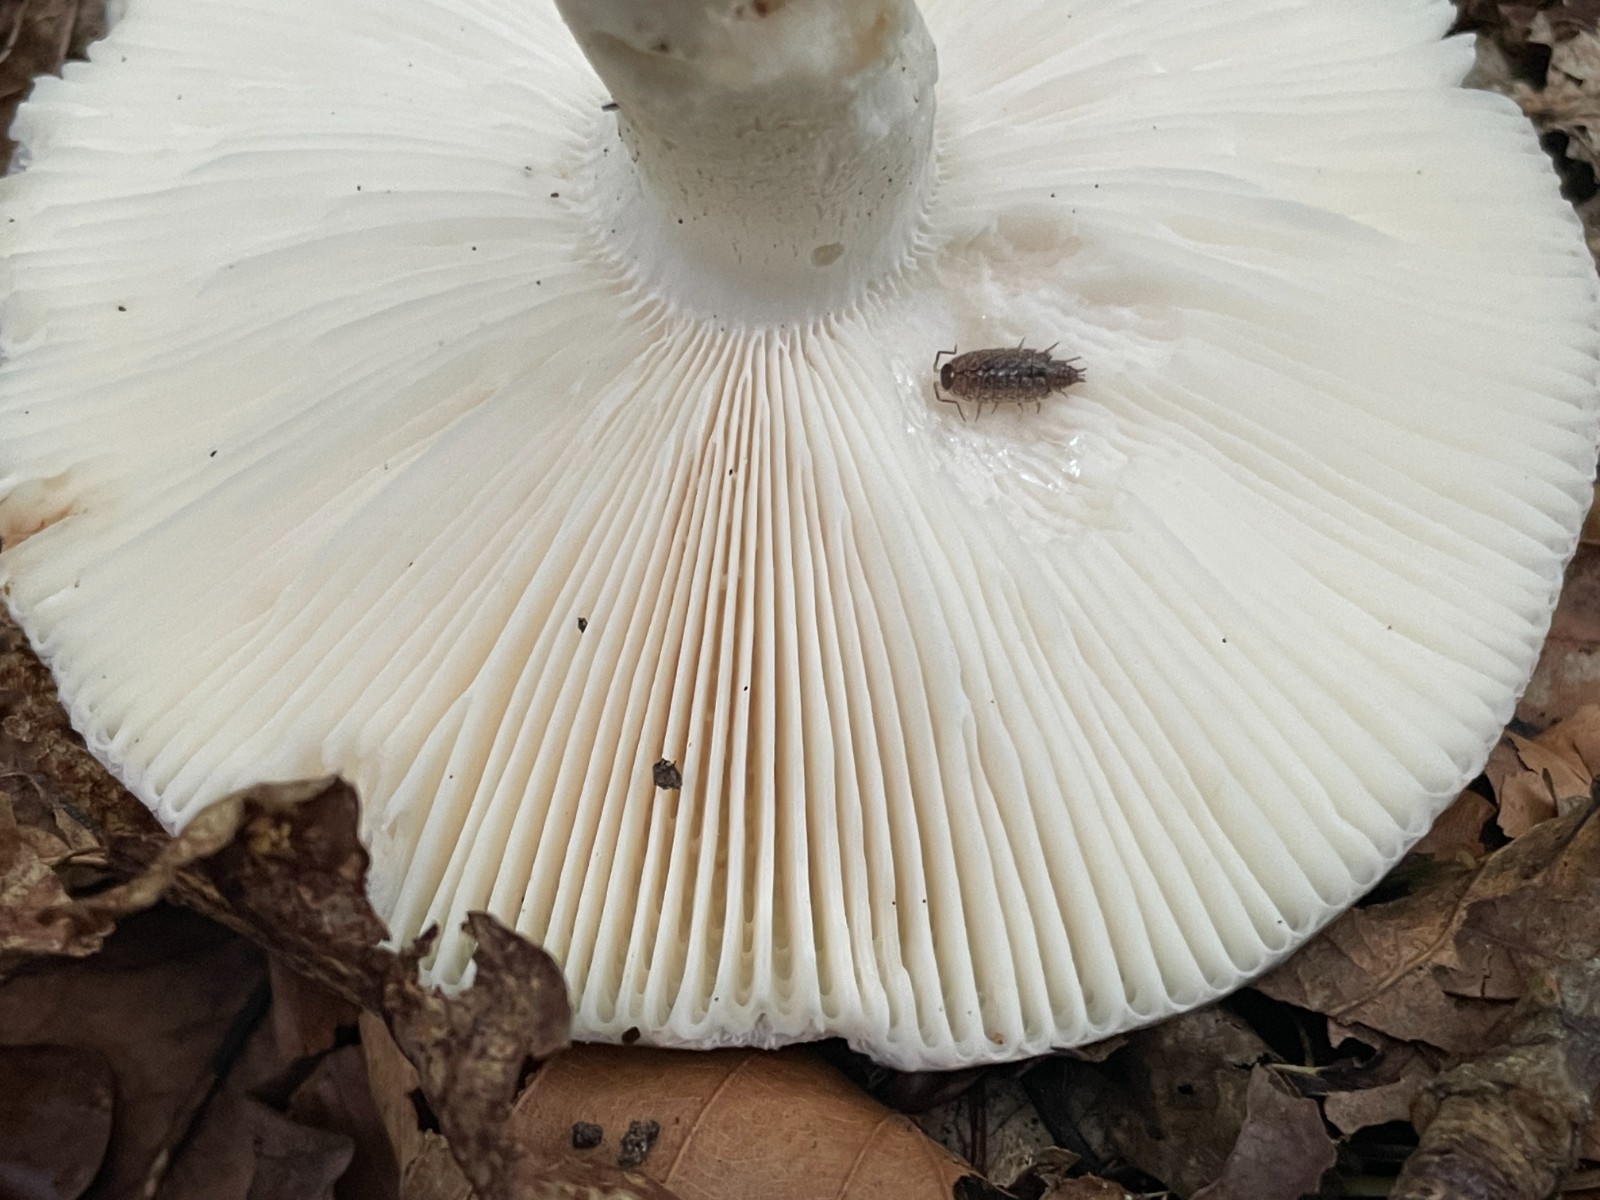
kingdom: Fungi
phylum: Basidiomycota
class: Agaricomycetes
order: Russulales
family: Russulaceae
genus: Russula
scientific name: Russula ionochlora
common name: violetgrøn skørhat
